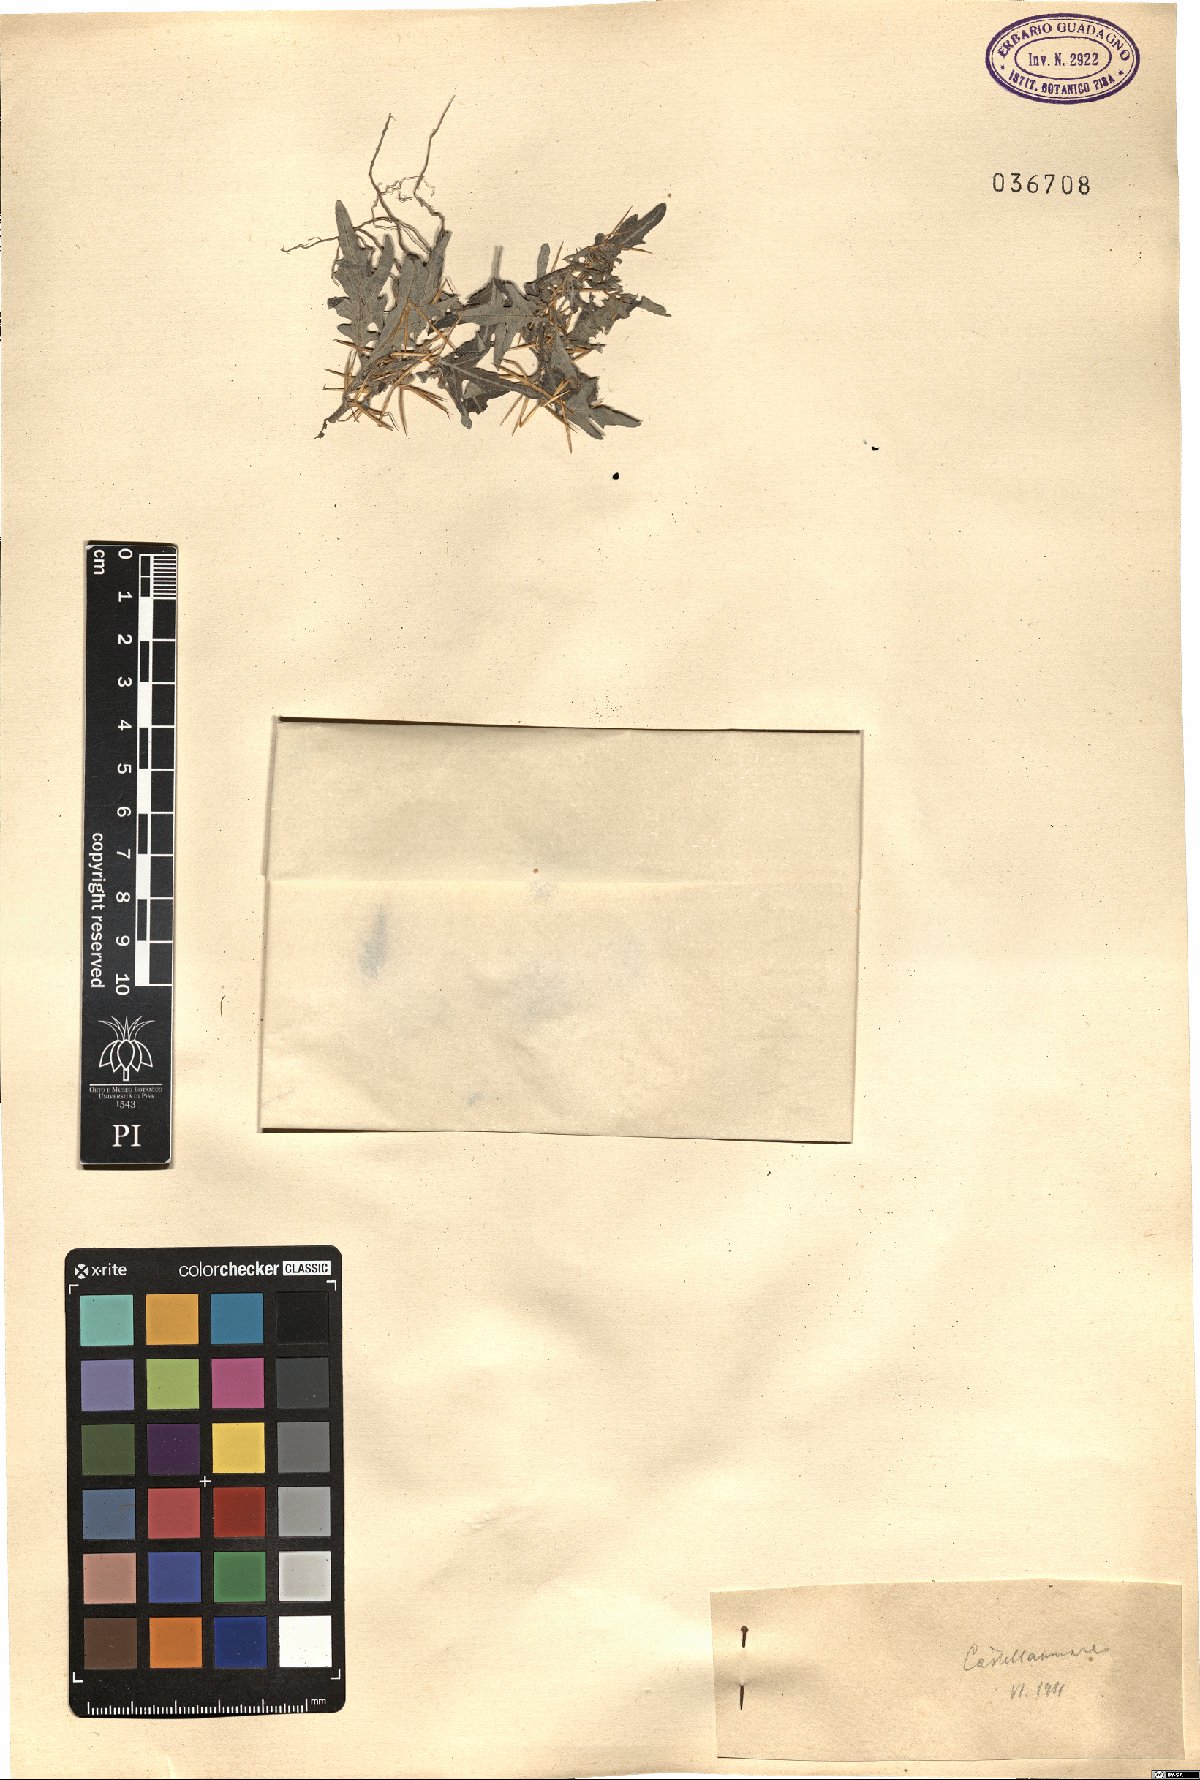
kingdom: Plantae
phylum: Tracheophyta
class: Magnoliopsida
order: Asterales
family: Asteraceae
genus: Xanthium
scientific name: Xanthium
